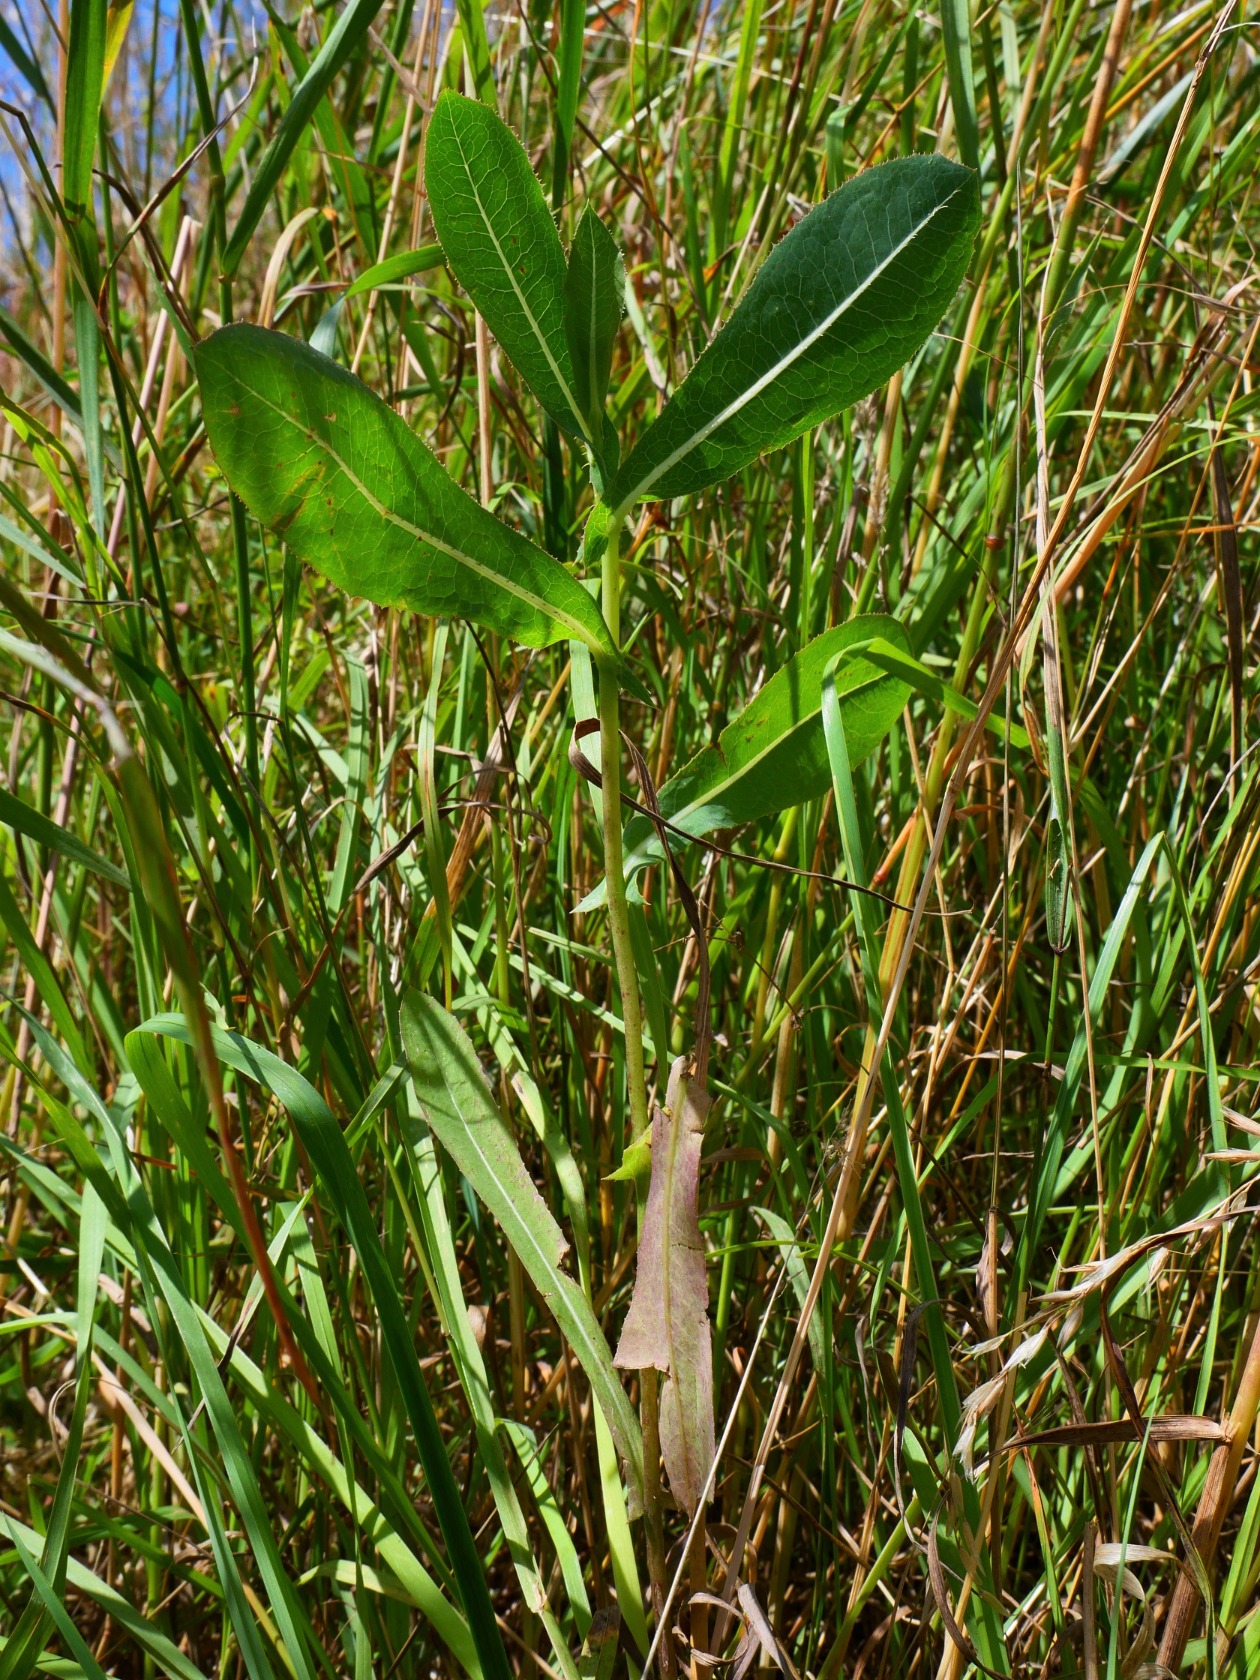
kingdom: Plantae
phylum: Tracheophyta
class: Magnoliopsida
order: Asterales
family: Asteraceae
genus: Lactuca
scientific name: Lactuca serriola
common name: Tornet salat
